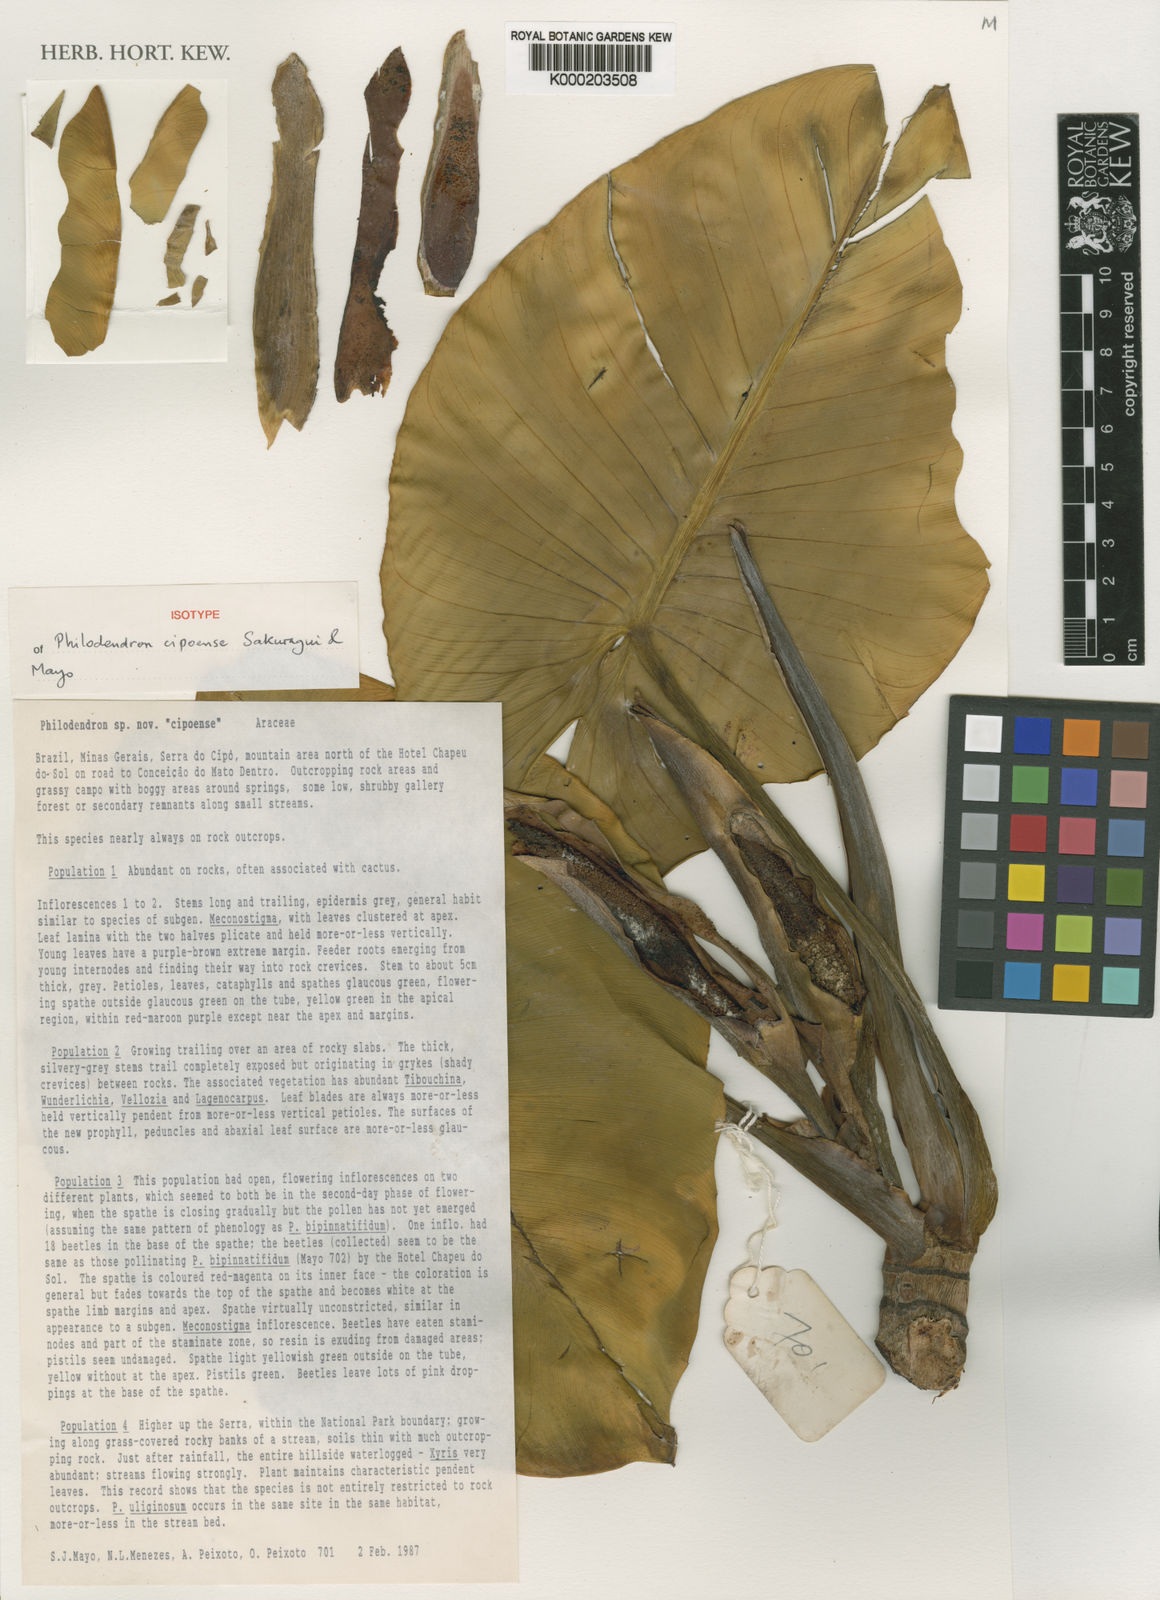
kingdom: Plantae
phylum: Tracheophyta
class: Liliopsida
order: Alismatales
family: Araceae
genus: Philodendron
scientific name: Philodendron cipoense
